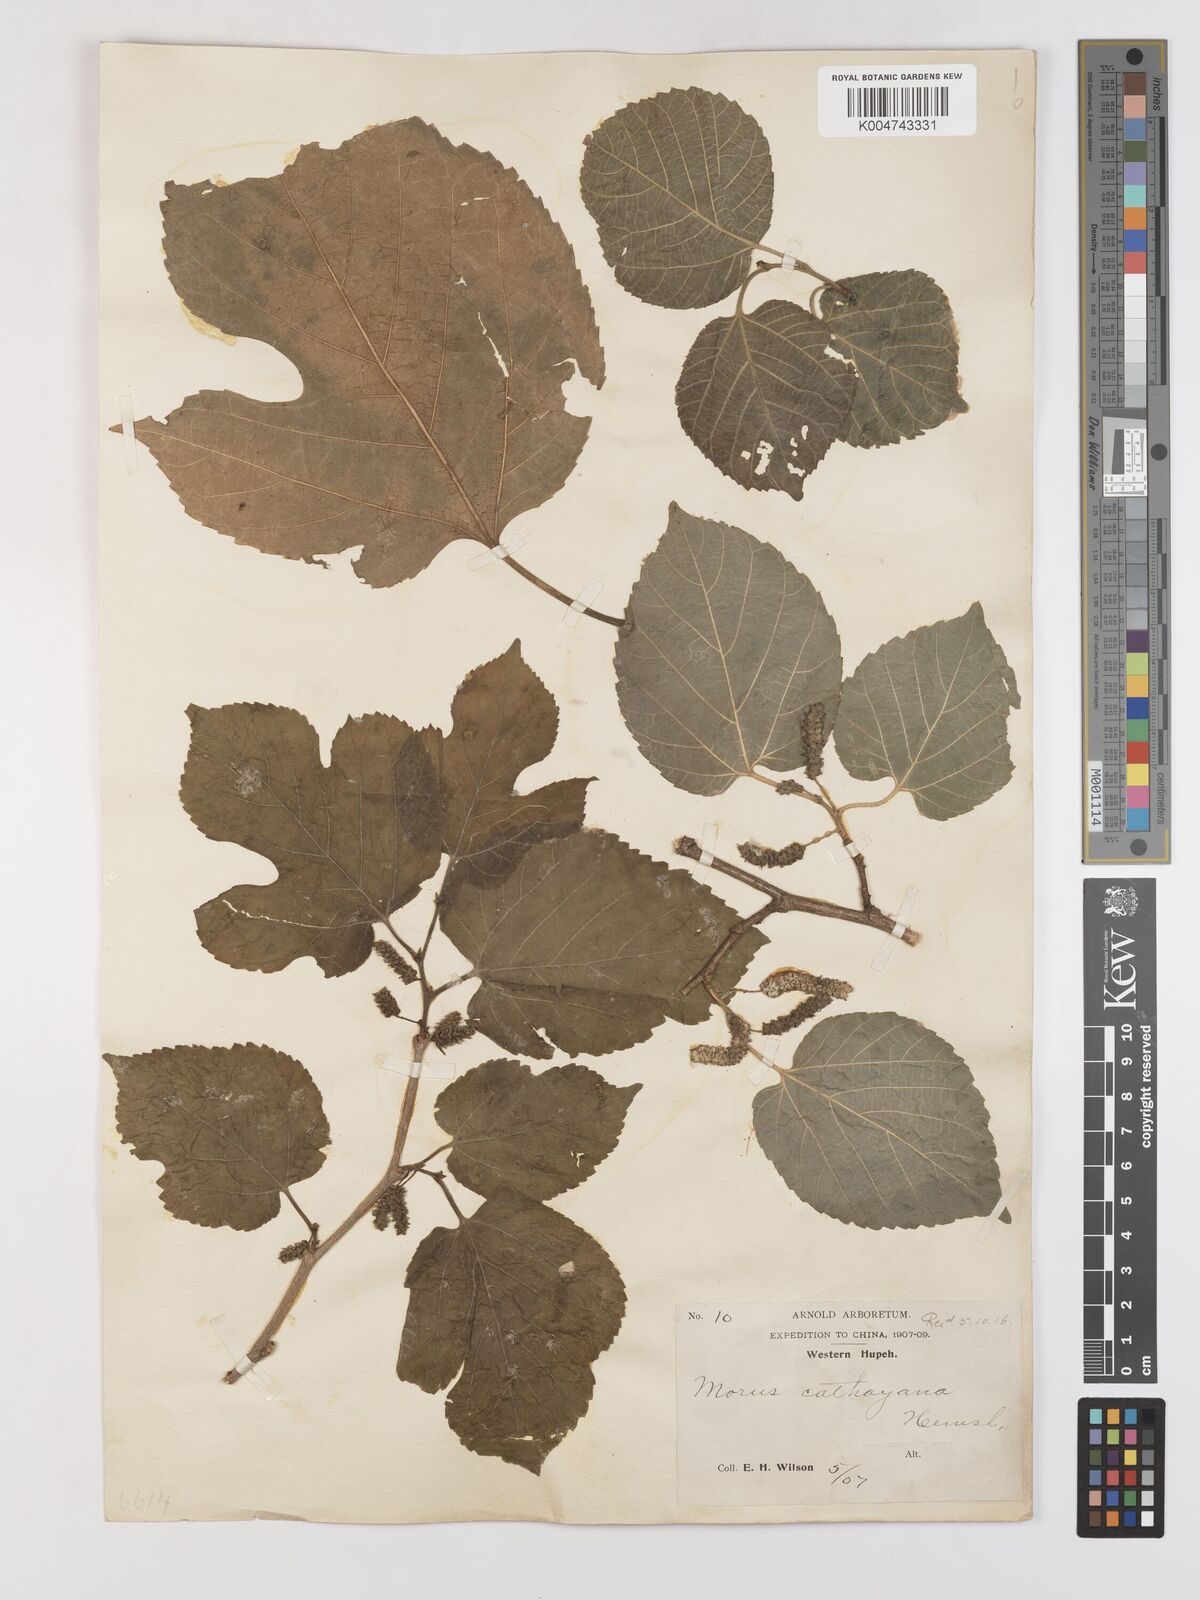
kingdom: Plantae
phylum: Tracheophyta
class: Magnoliopsida
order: Rosales
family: Moraceae
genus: Morus
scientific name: Morus cathayana
